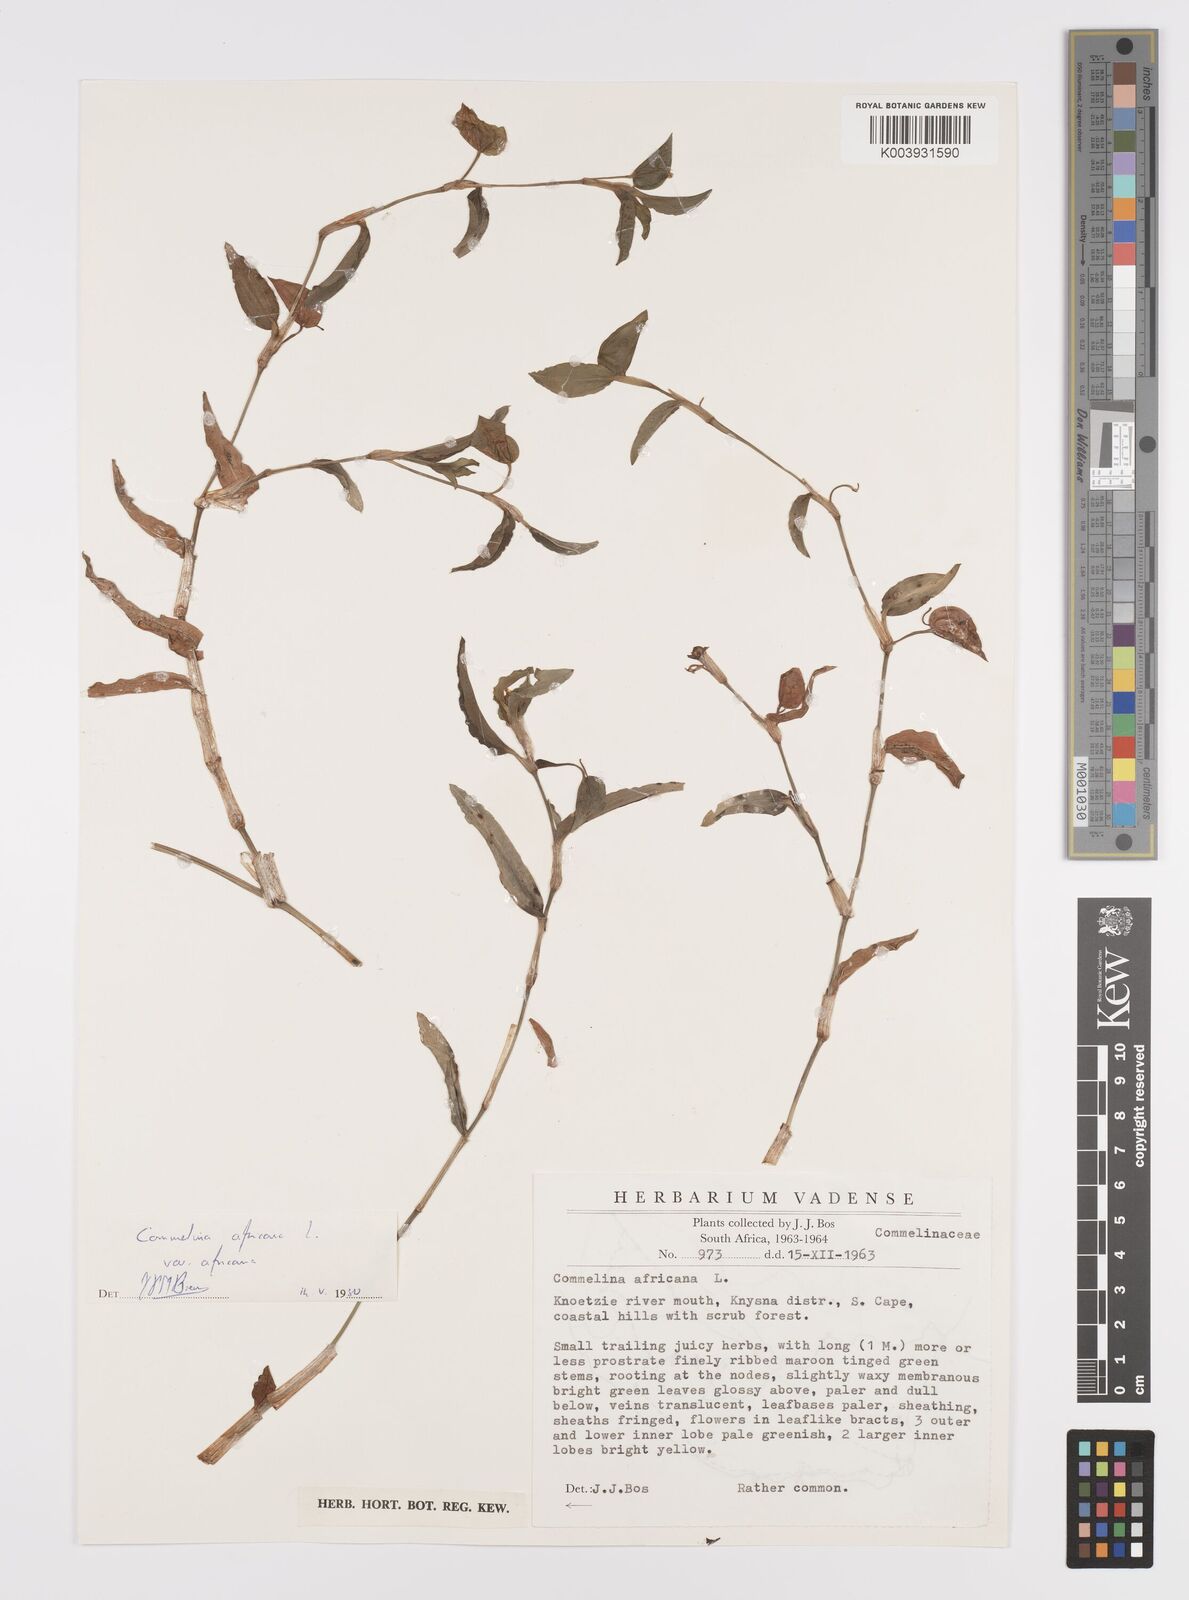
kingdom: Plantae
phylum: Tracheophyta
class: Liliopsida
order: Commelinales
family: Commelinaceae
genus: Commelina
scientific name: Commelina africana
